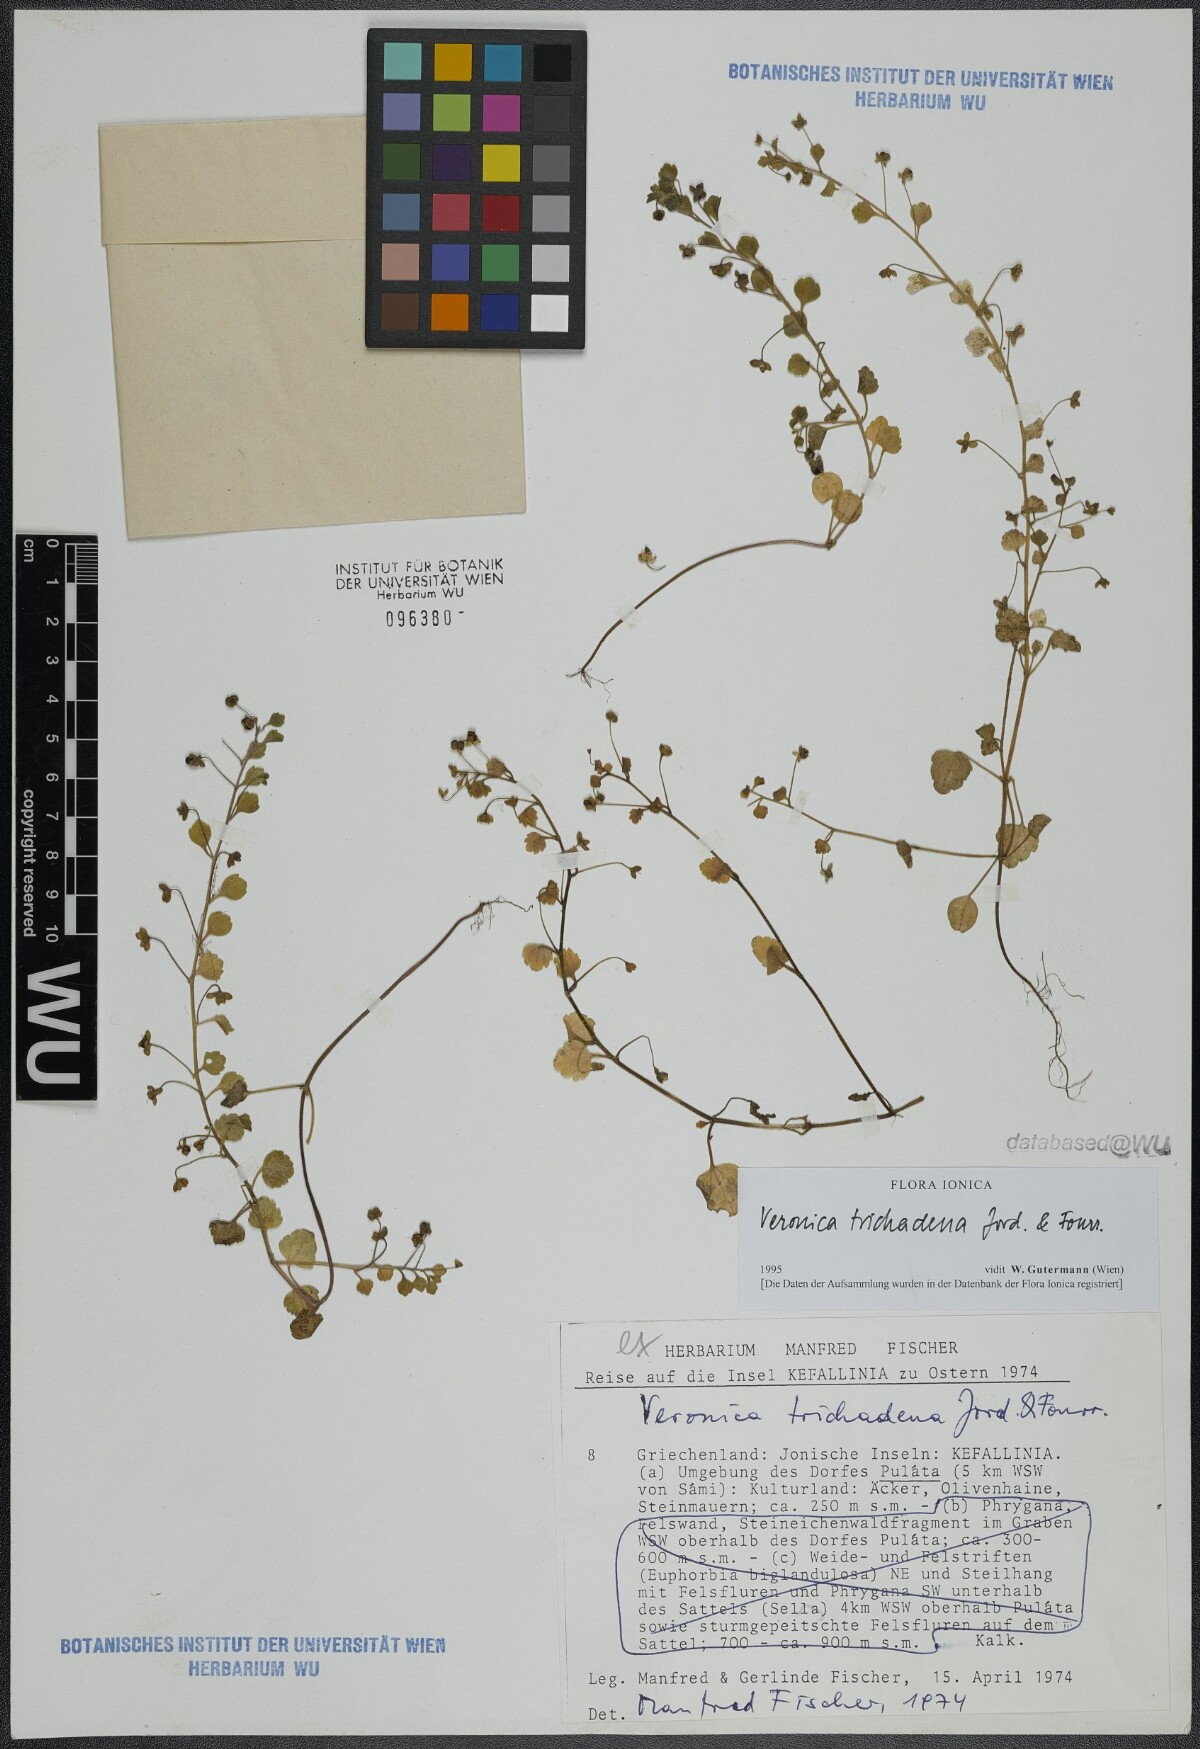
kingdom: Plantae
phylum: Tracheophyta
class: Magnoliopsida
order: Lamiales
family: Plantaginaceae
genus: Veronica
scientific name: Veronica trichadena
